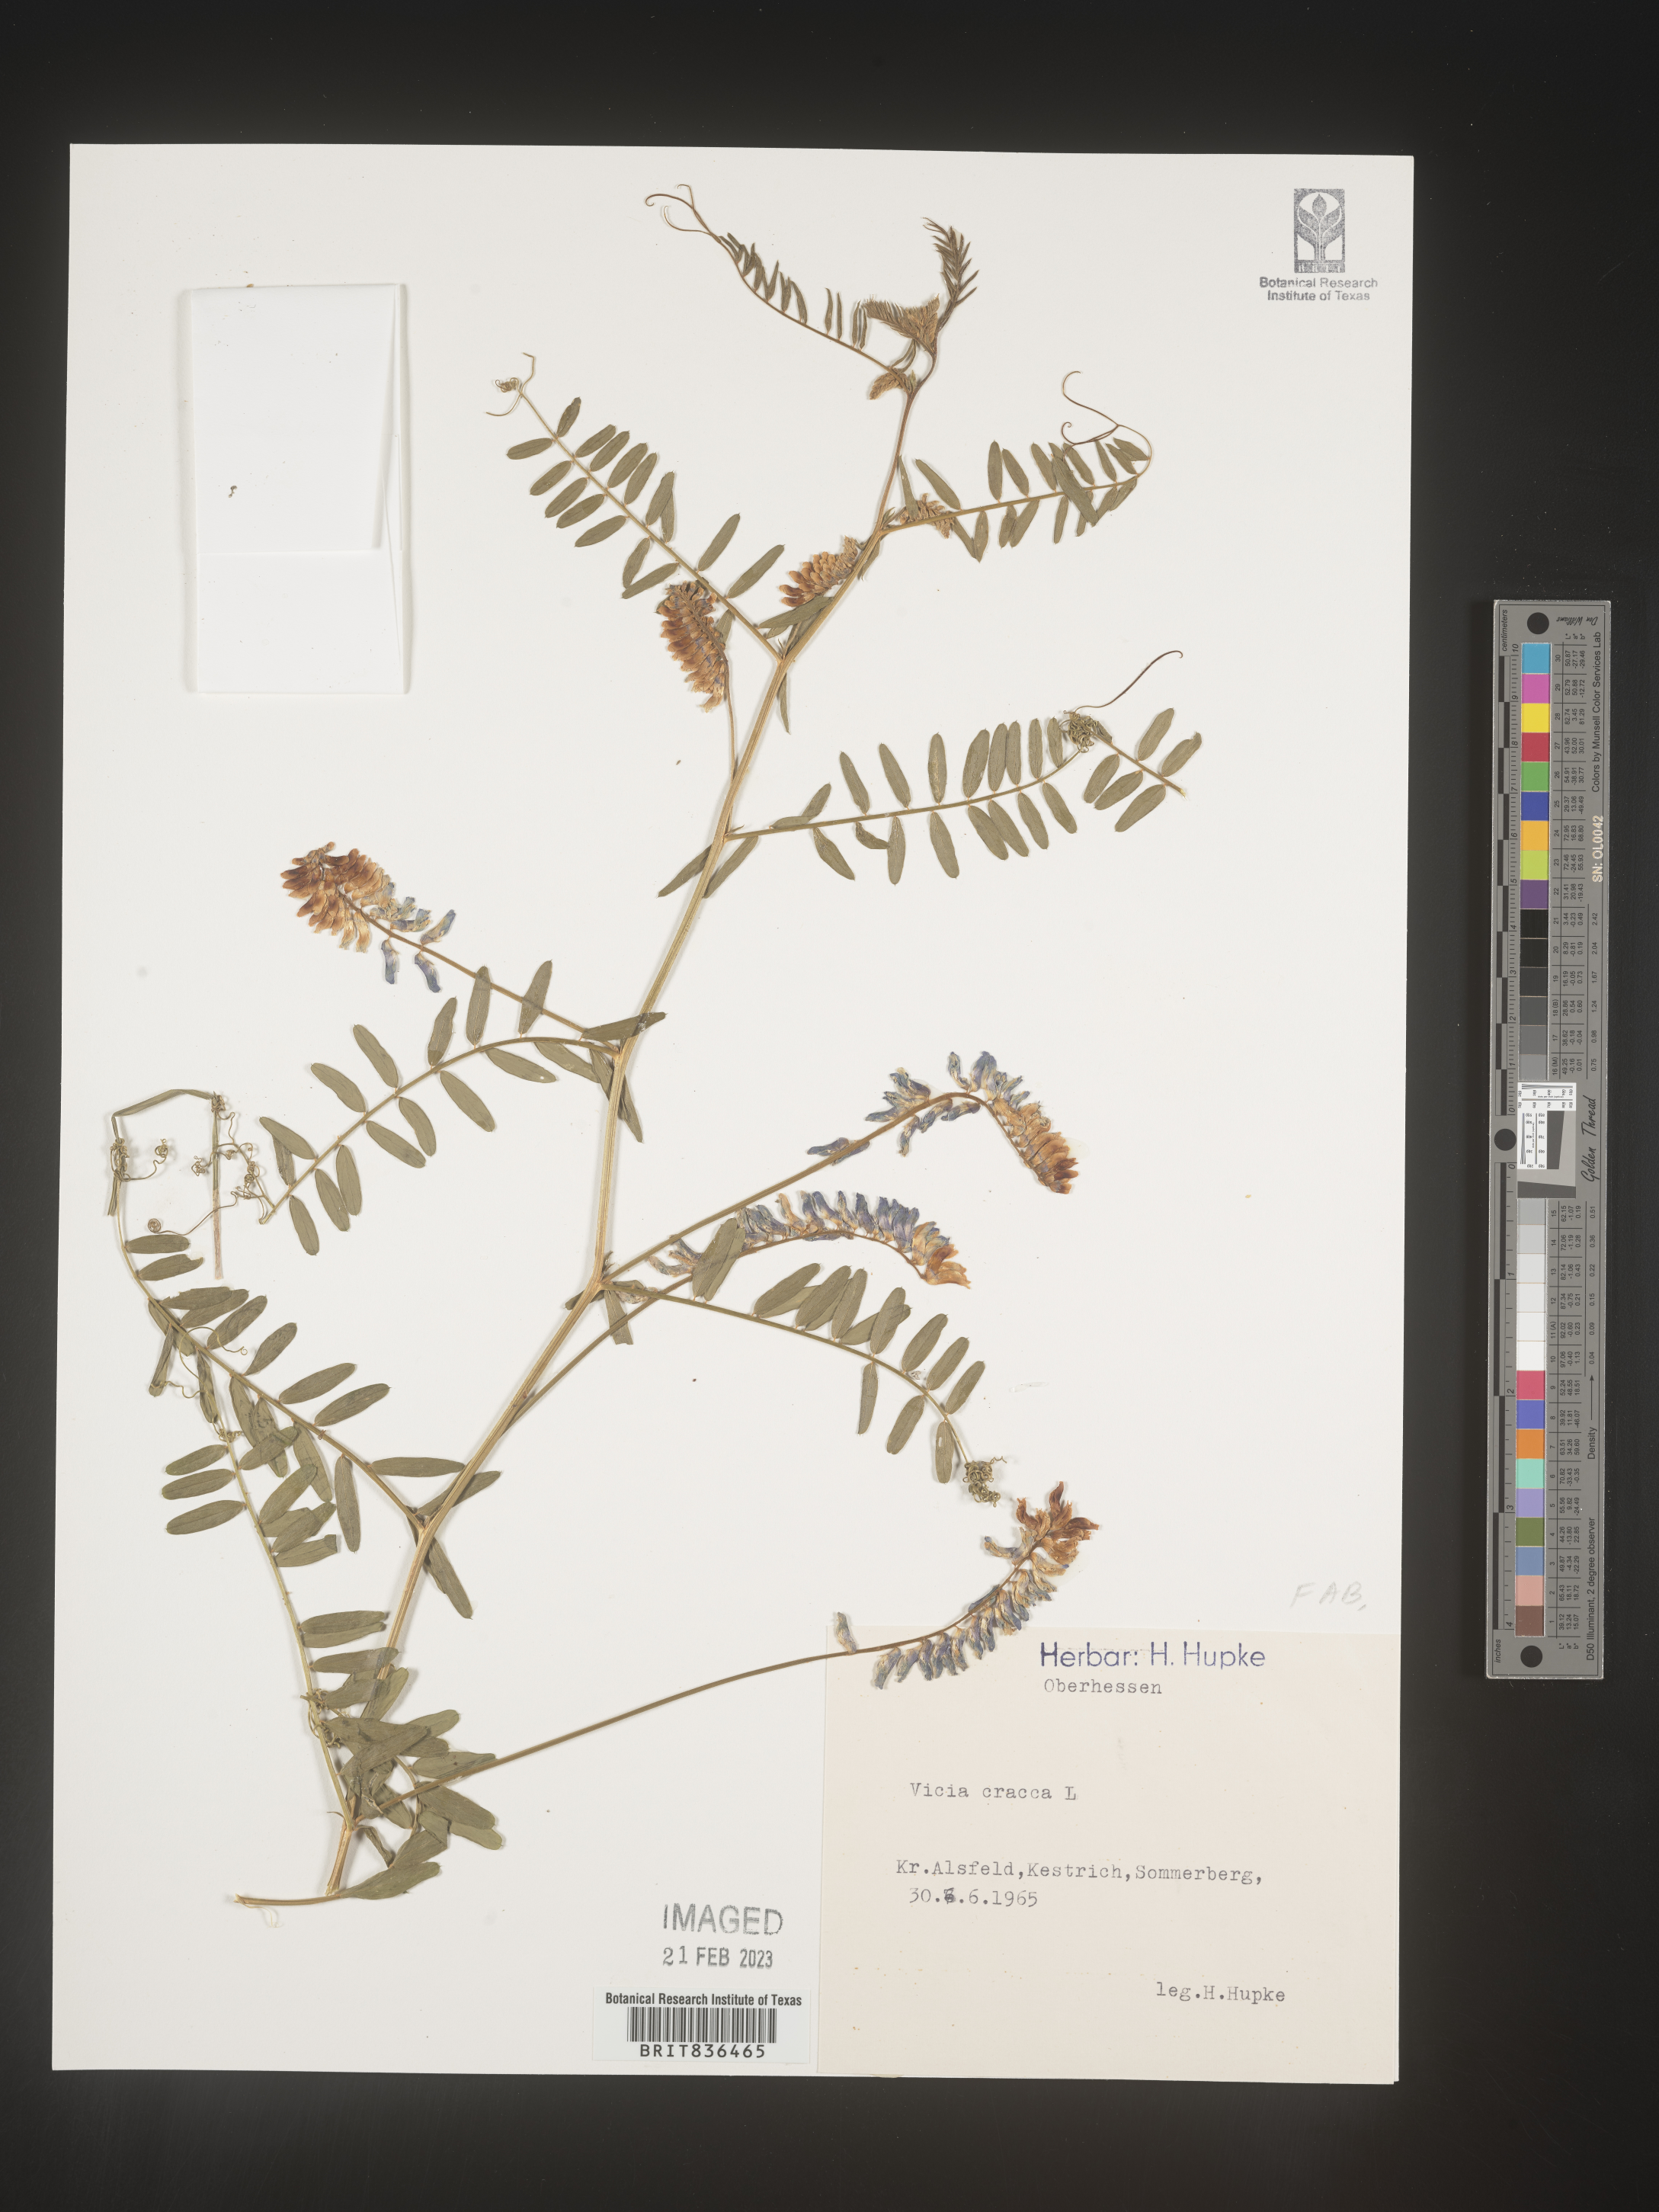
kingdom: Plantae
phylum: Tracheophyta
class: Magnoliopsida
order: Fabales
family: Fabaceae
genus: Vicia
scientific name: Vicia
